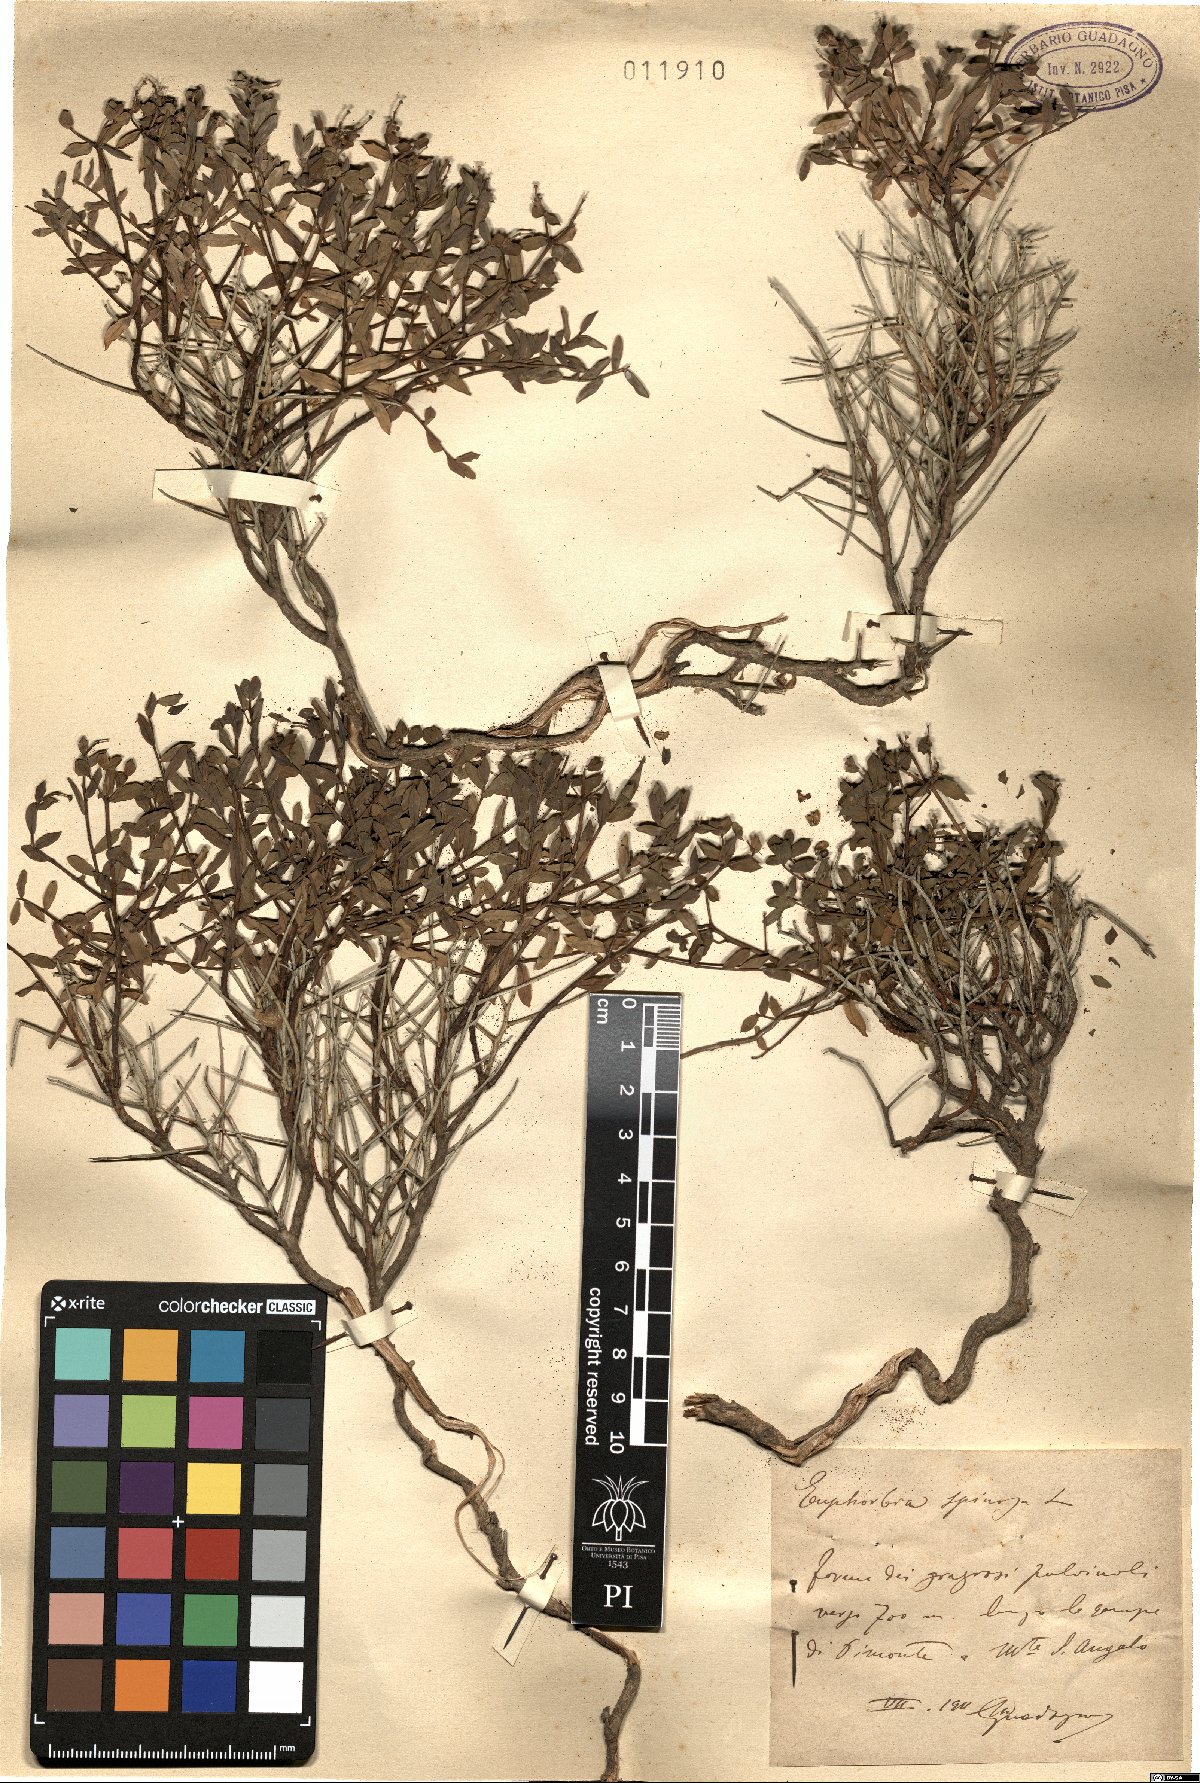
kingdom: Plantae
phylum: Tracheophyta
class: Magnoliopsida
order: Malpighiales
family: Euphorbiaceae
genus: Euphorbia
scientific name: Euphorbia spinosa
